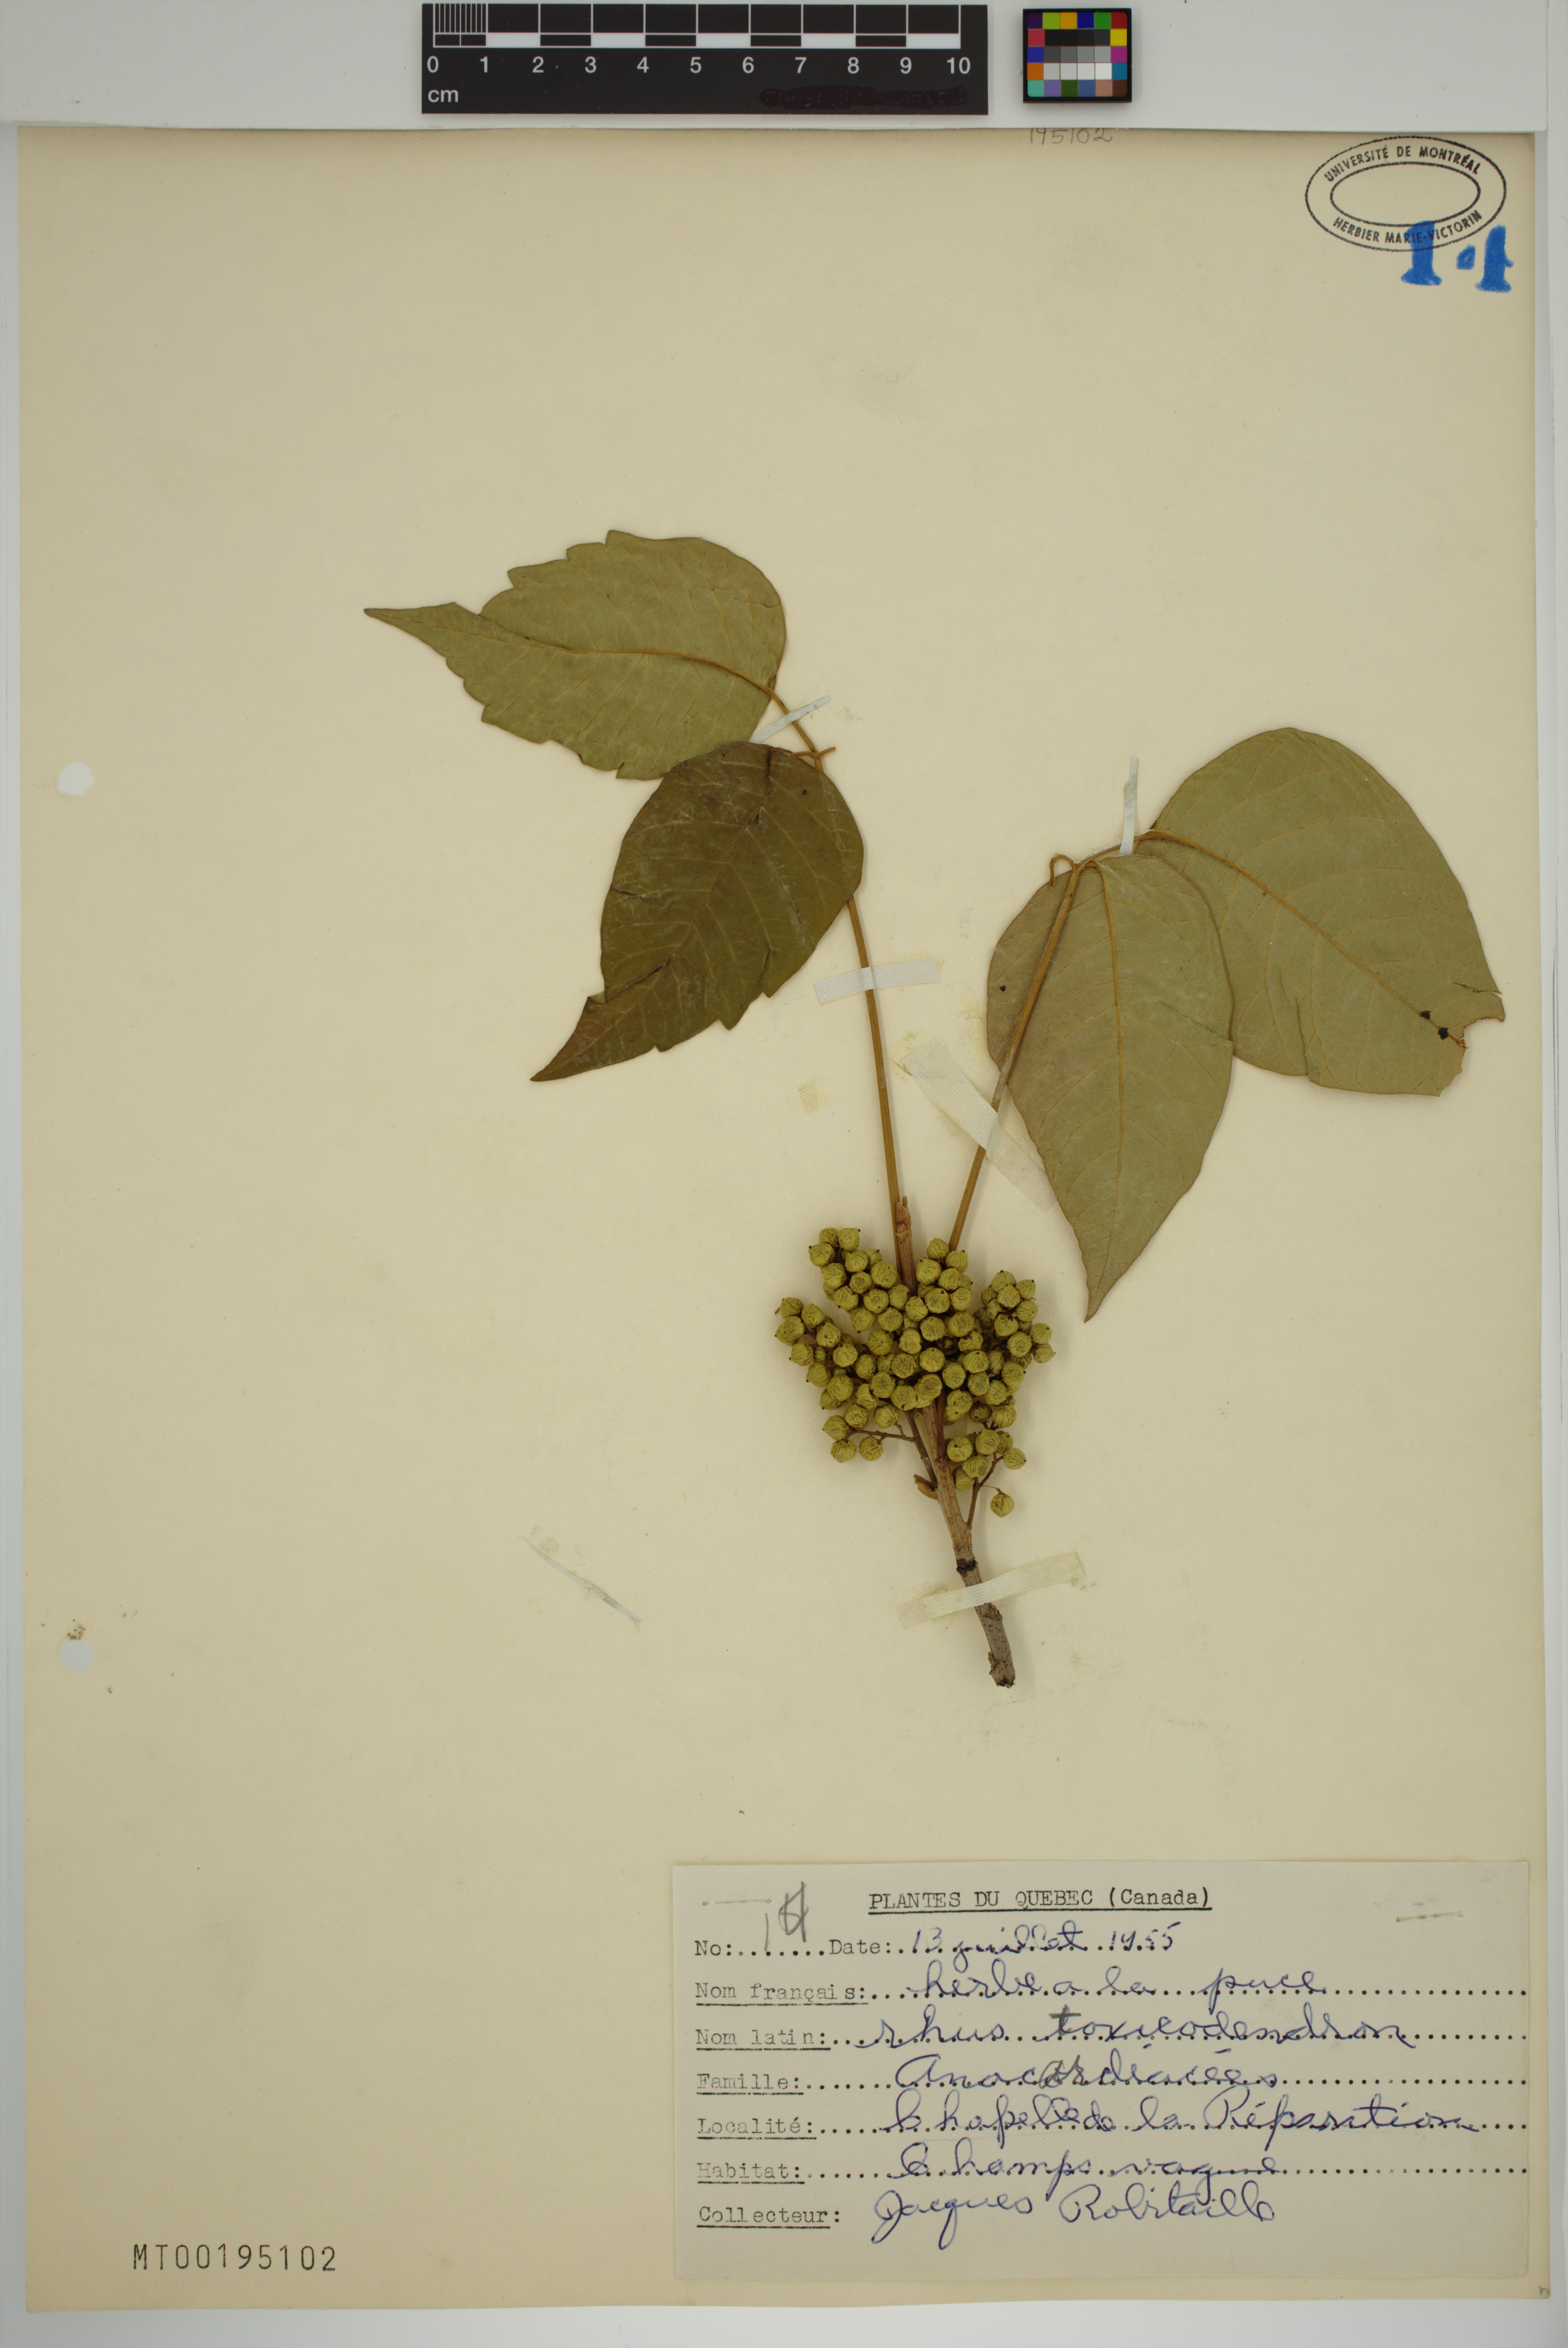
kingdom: Plantae
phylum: Tracheophyta
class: Magnoliopsida
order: Sapindales
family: Anacardiaceae
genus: Toxicodendron
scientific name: Toxicodendron
